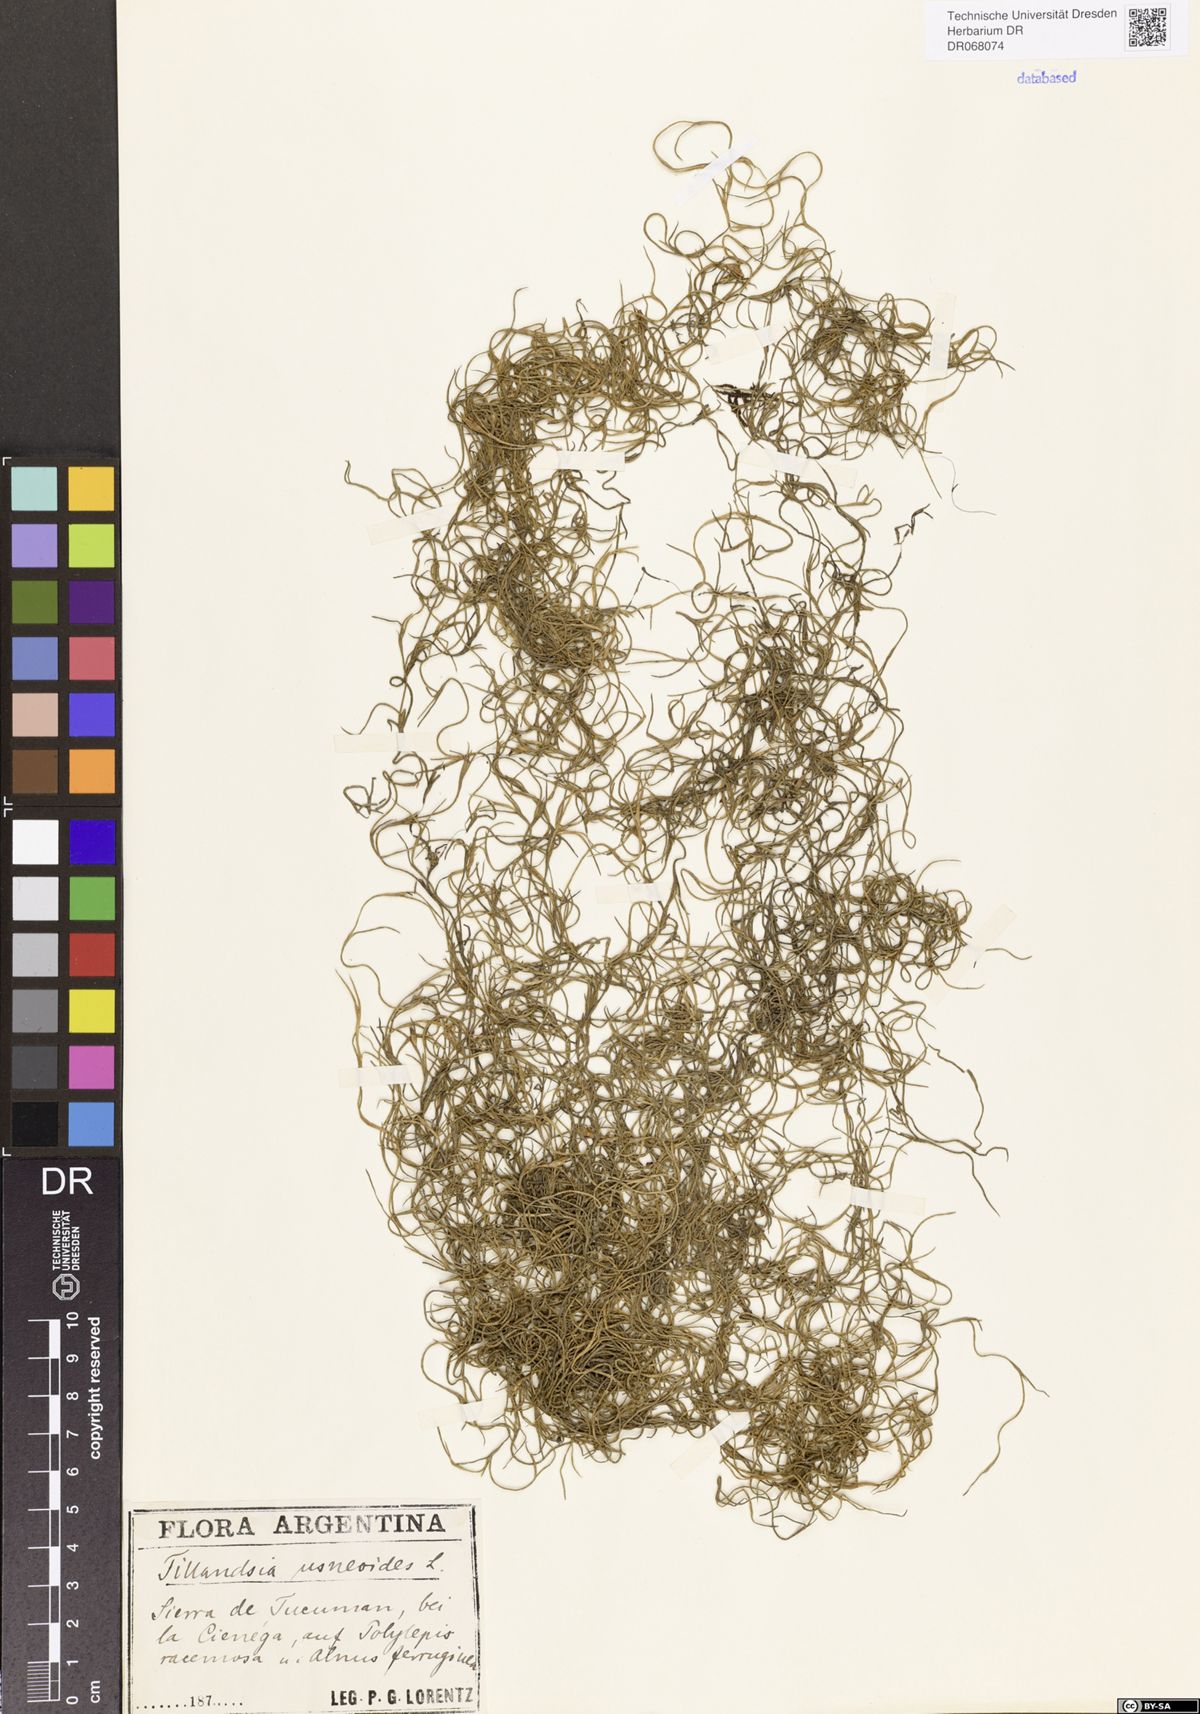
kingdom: Plantae
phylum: Tracheophyta
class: Liliopsida
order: Poales
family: Bromeliaceae
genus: Tillandsia
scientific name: Tillandsia usneoides
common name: Spanish moss
